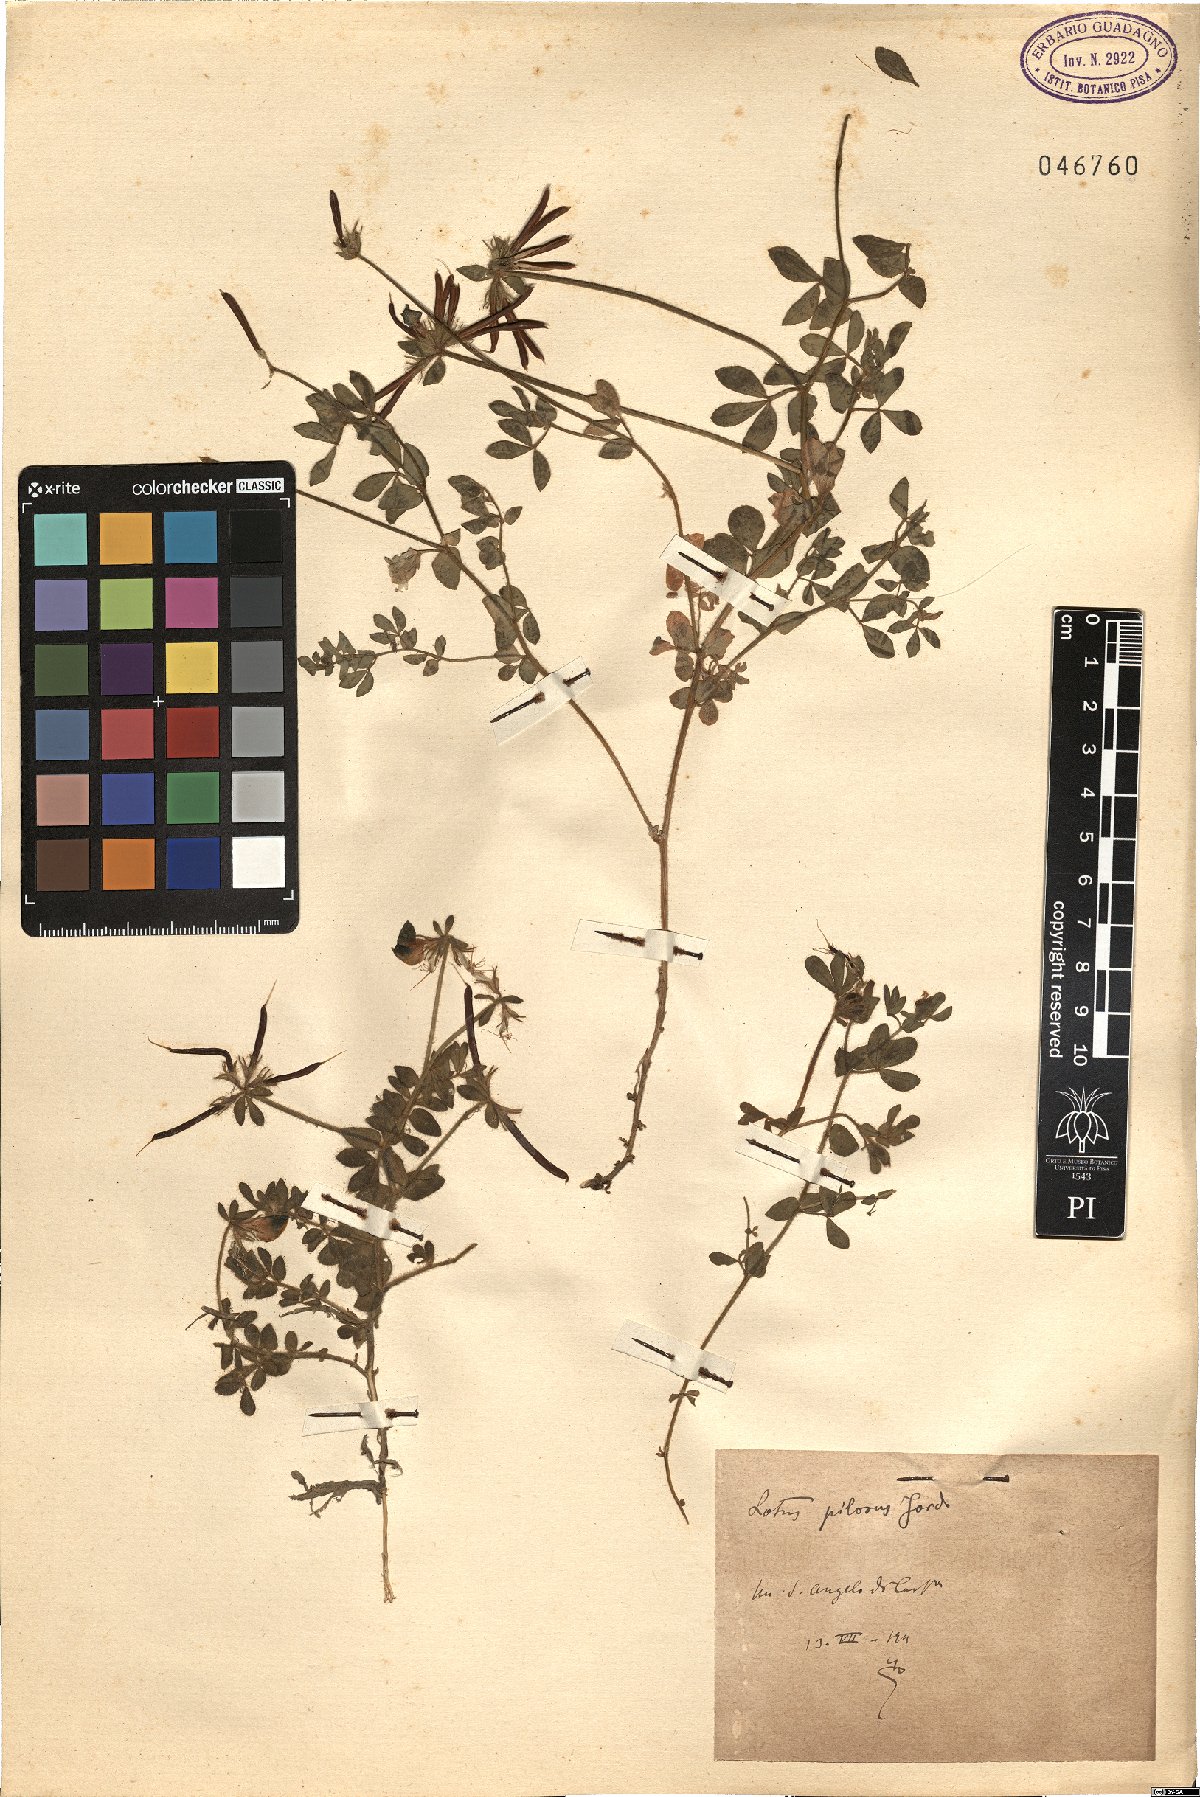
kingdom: Plantae
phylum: Tracheophyta
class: Magnoliopsida
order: Fabales
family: Fabaceae
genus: Lotus
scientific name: Lotus corniculatus
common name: Common bird's-foot-trefoil
